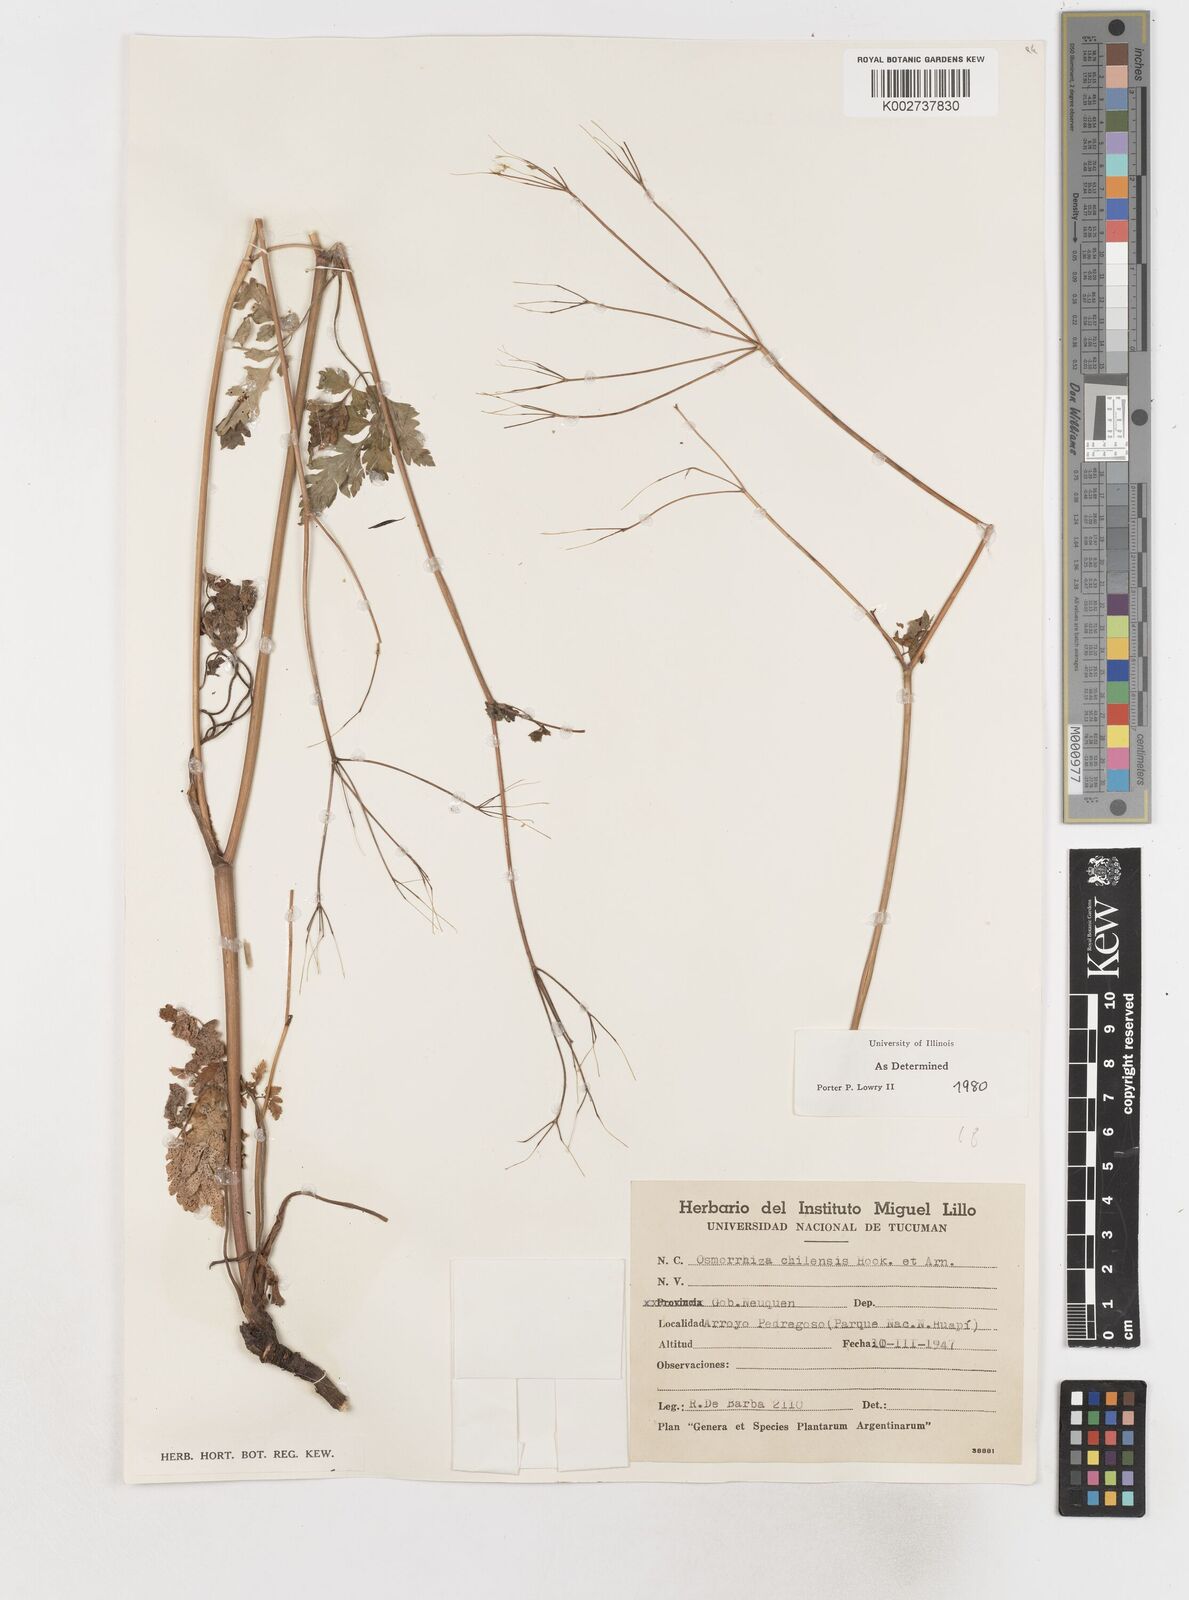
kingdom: Plantae
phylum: Tracheophyta
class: Magnoliopsida
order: Apiales
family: Apiaceae
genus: Osmorhiza
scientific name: Osmorhiza berteroi
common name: Mountain sweet cicely
